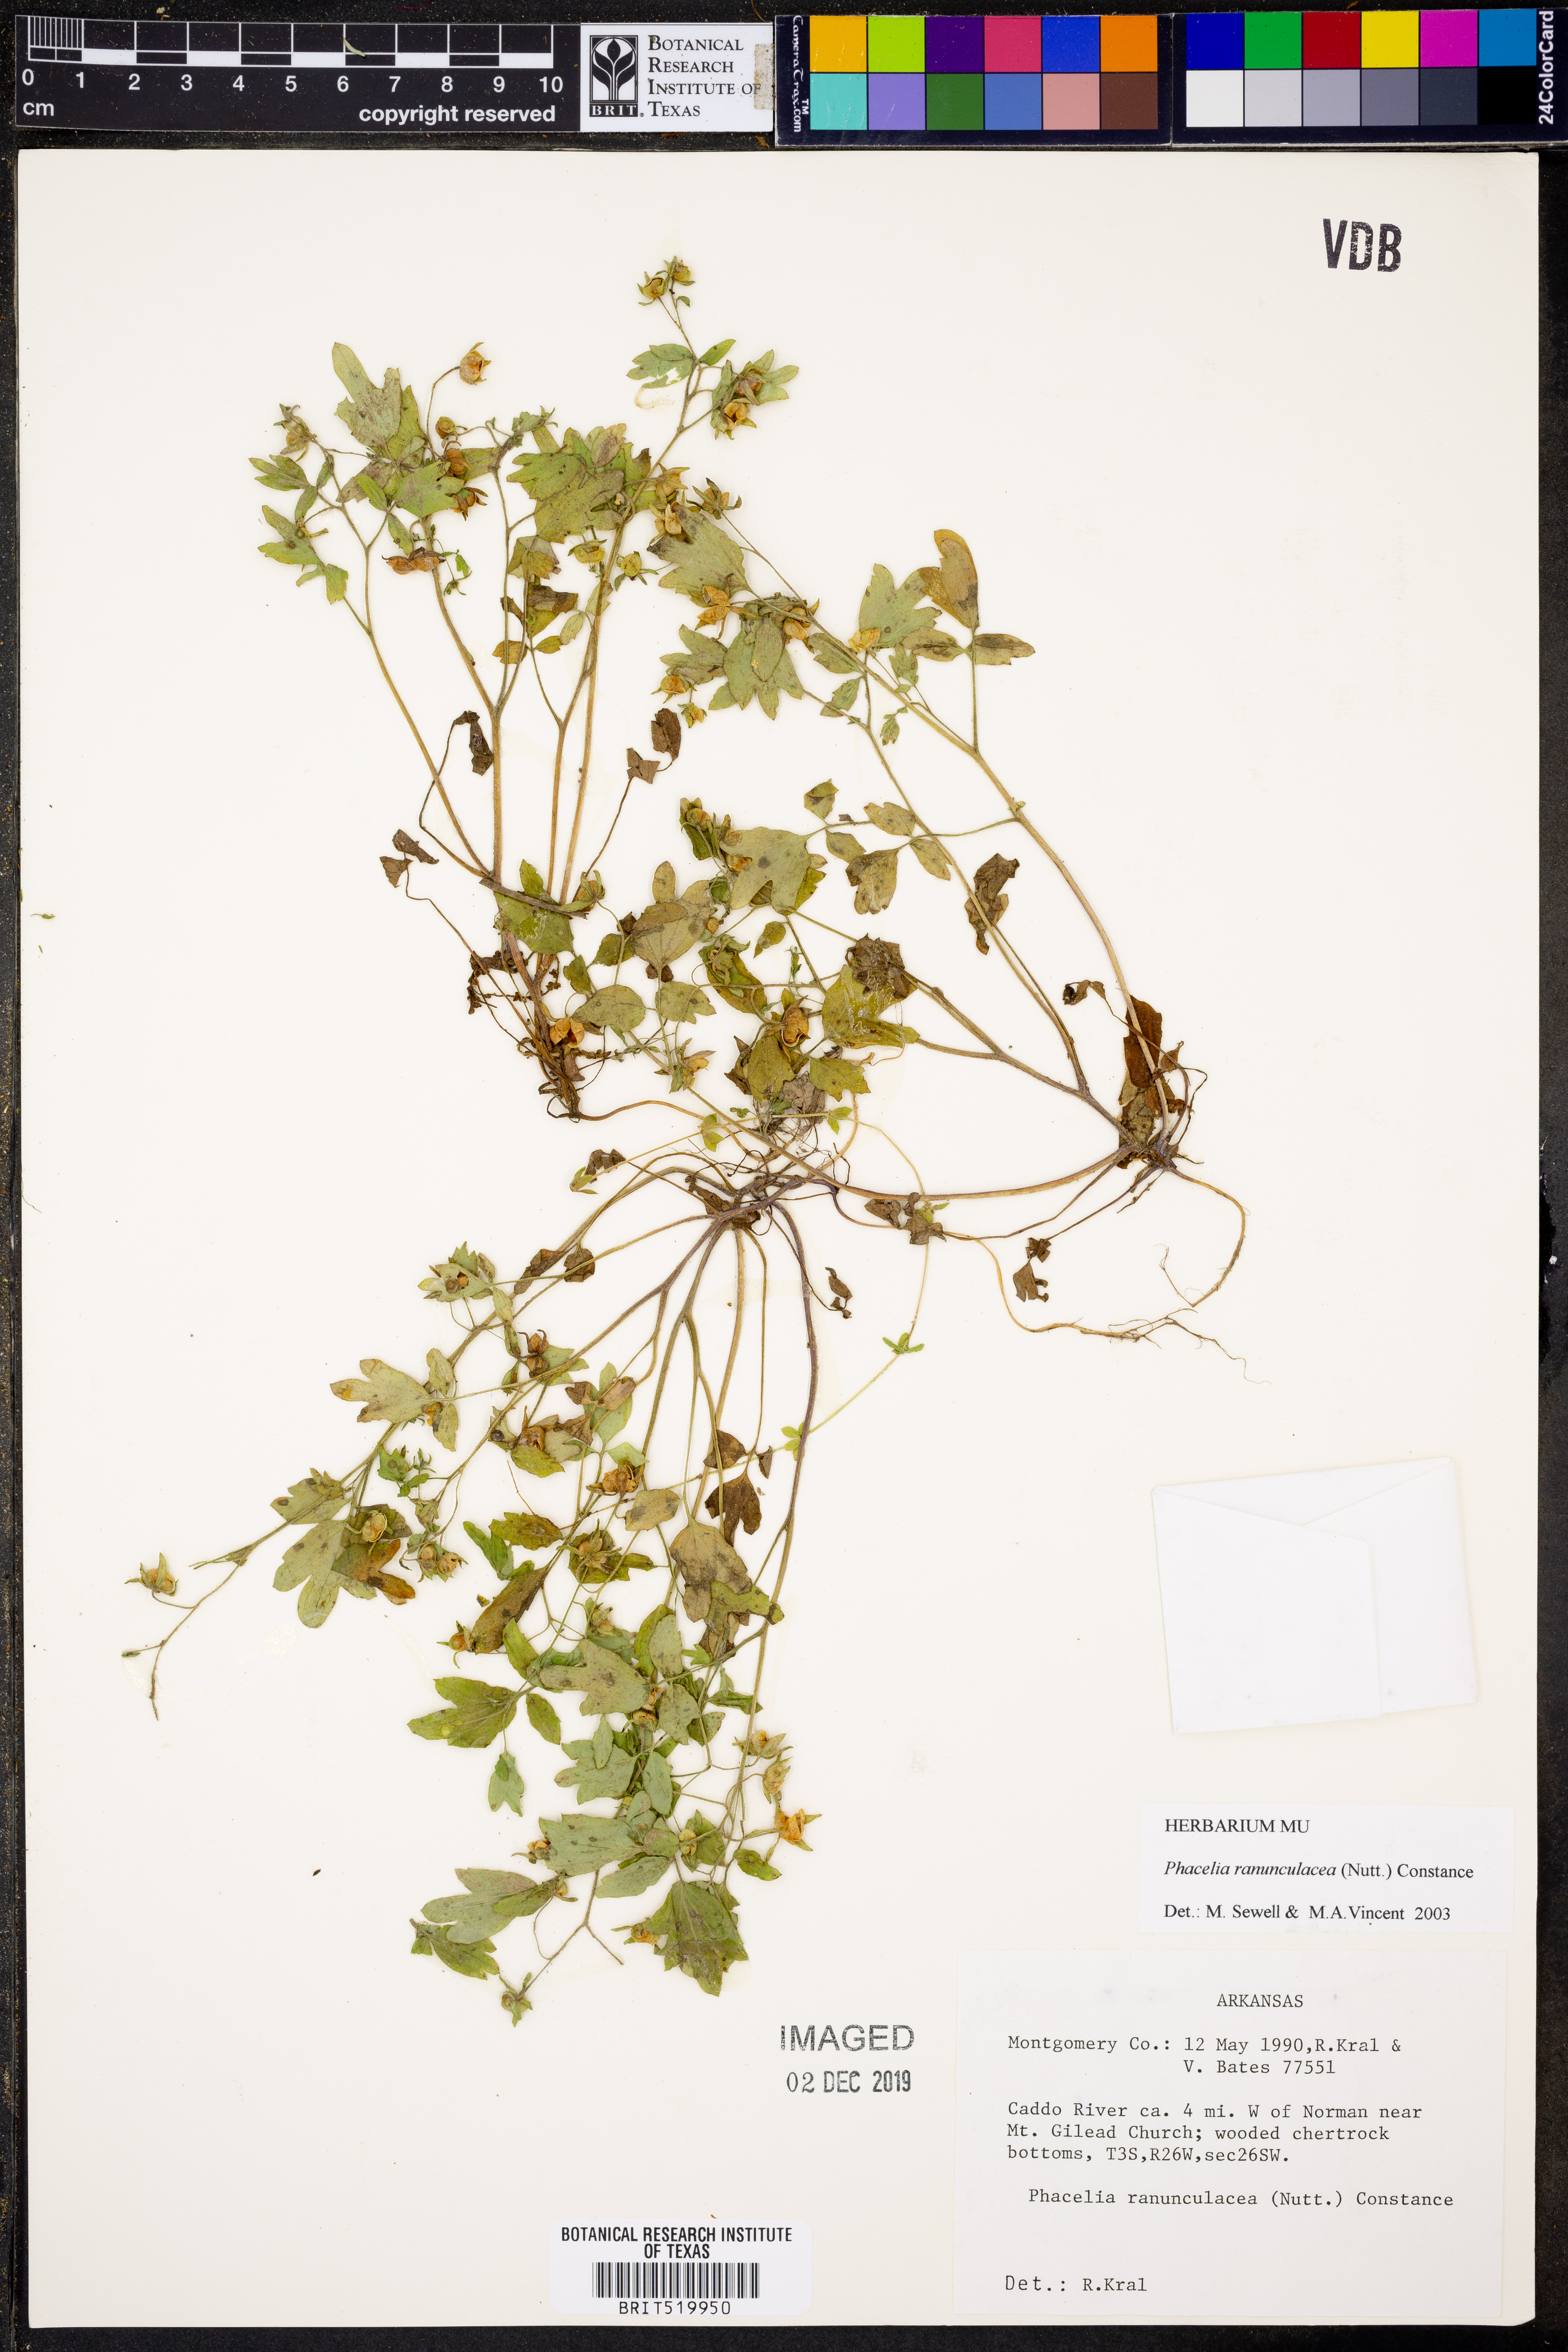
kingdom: Plantae
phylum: Tracheophyta
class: Magnoliopsida
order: Boraginales
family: Hydrophyllaceae
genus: Phacelia
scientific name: Phacelia ranunculacea
